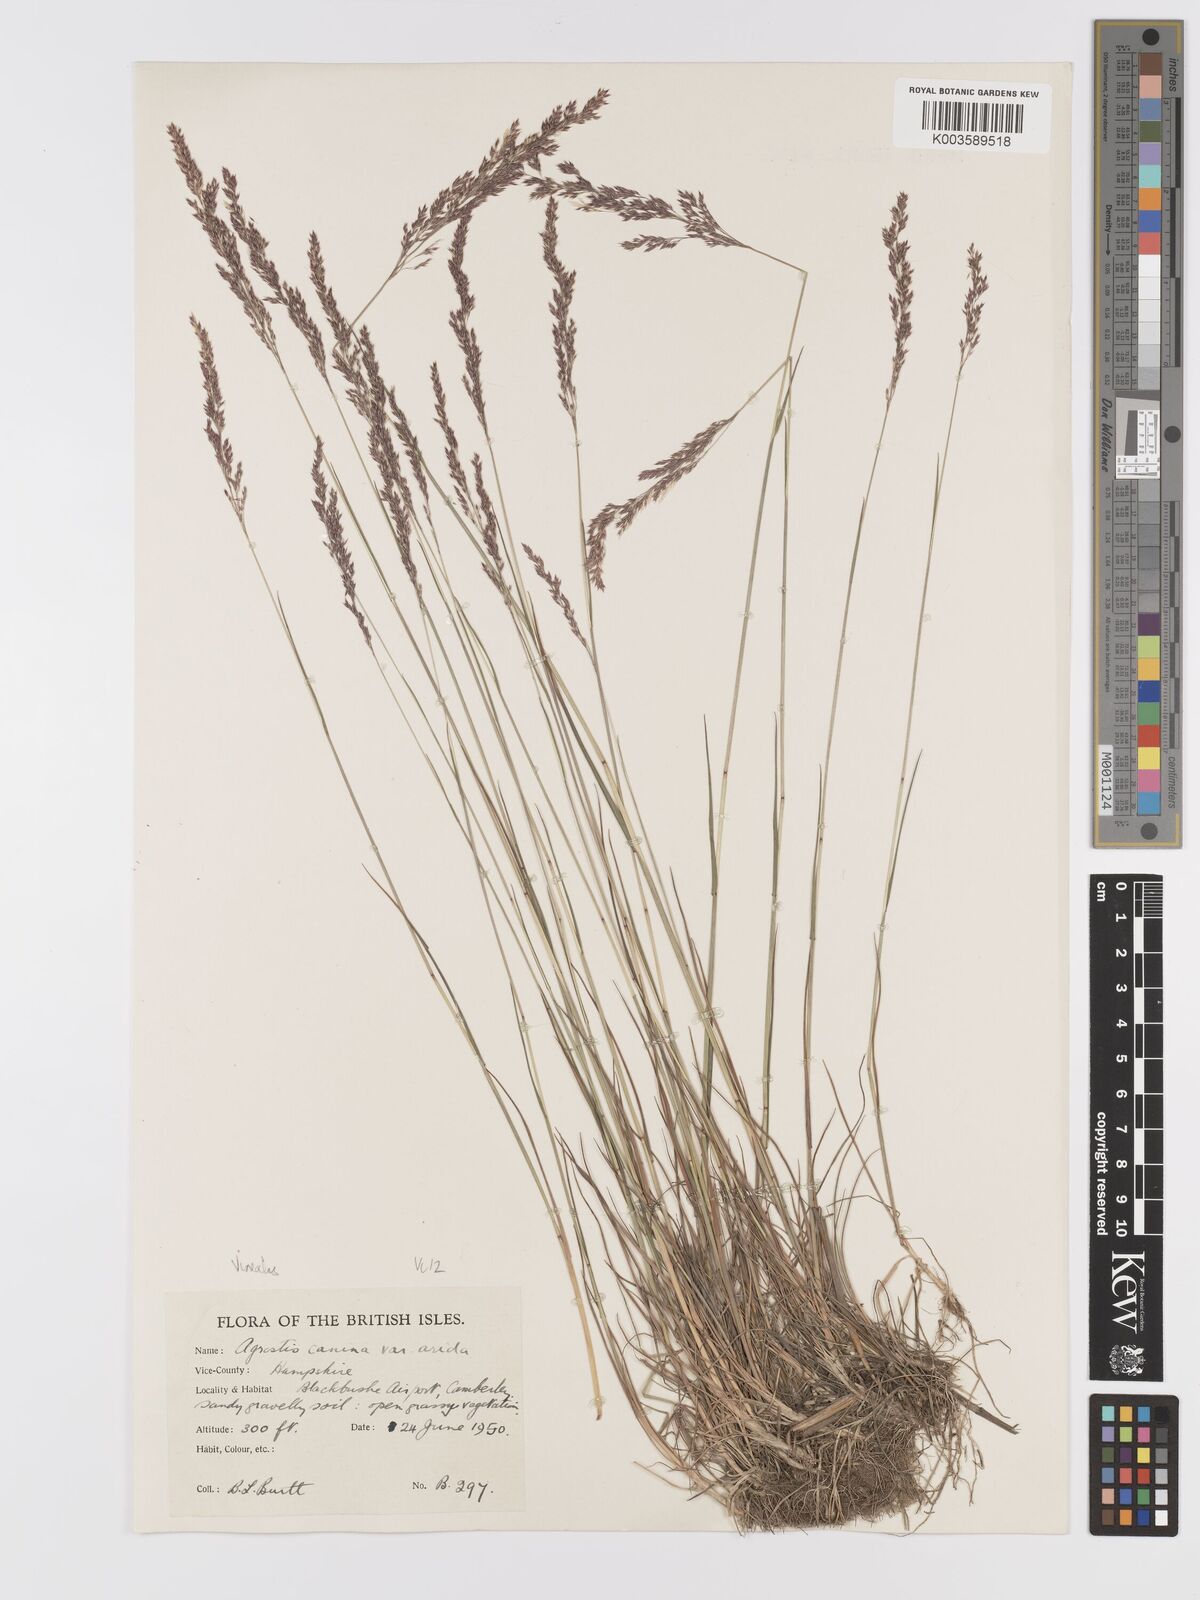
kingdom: Plantae
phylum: Tracheophyta
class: Liliopsida
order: Poales
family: Poaceae
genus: Agrostis
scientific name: Agrostis
